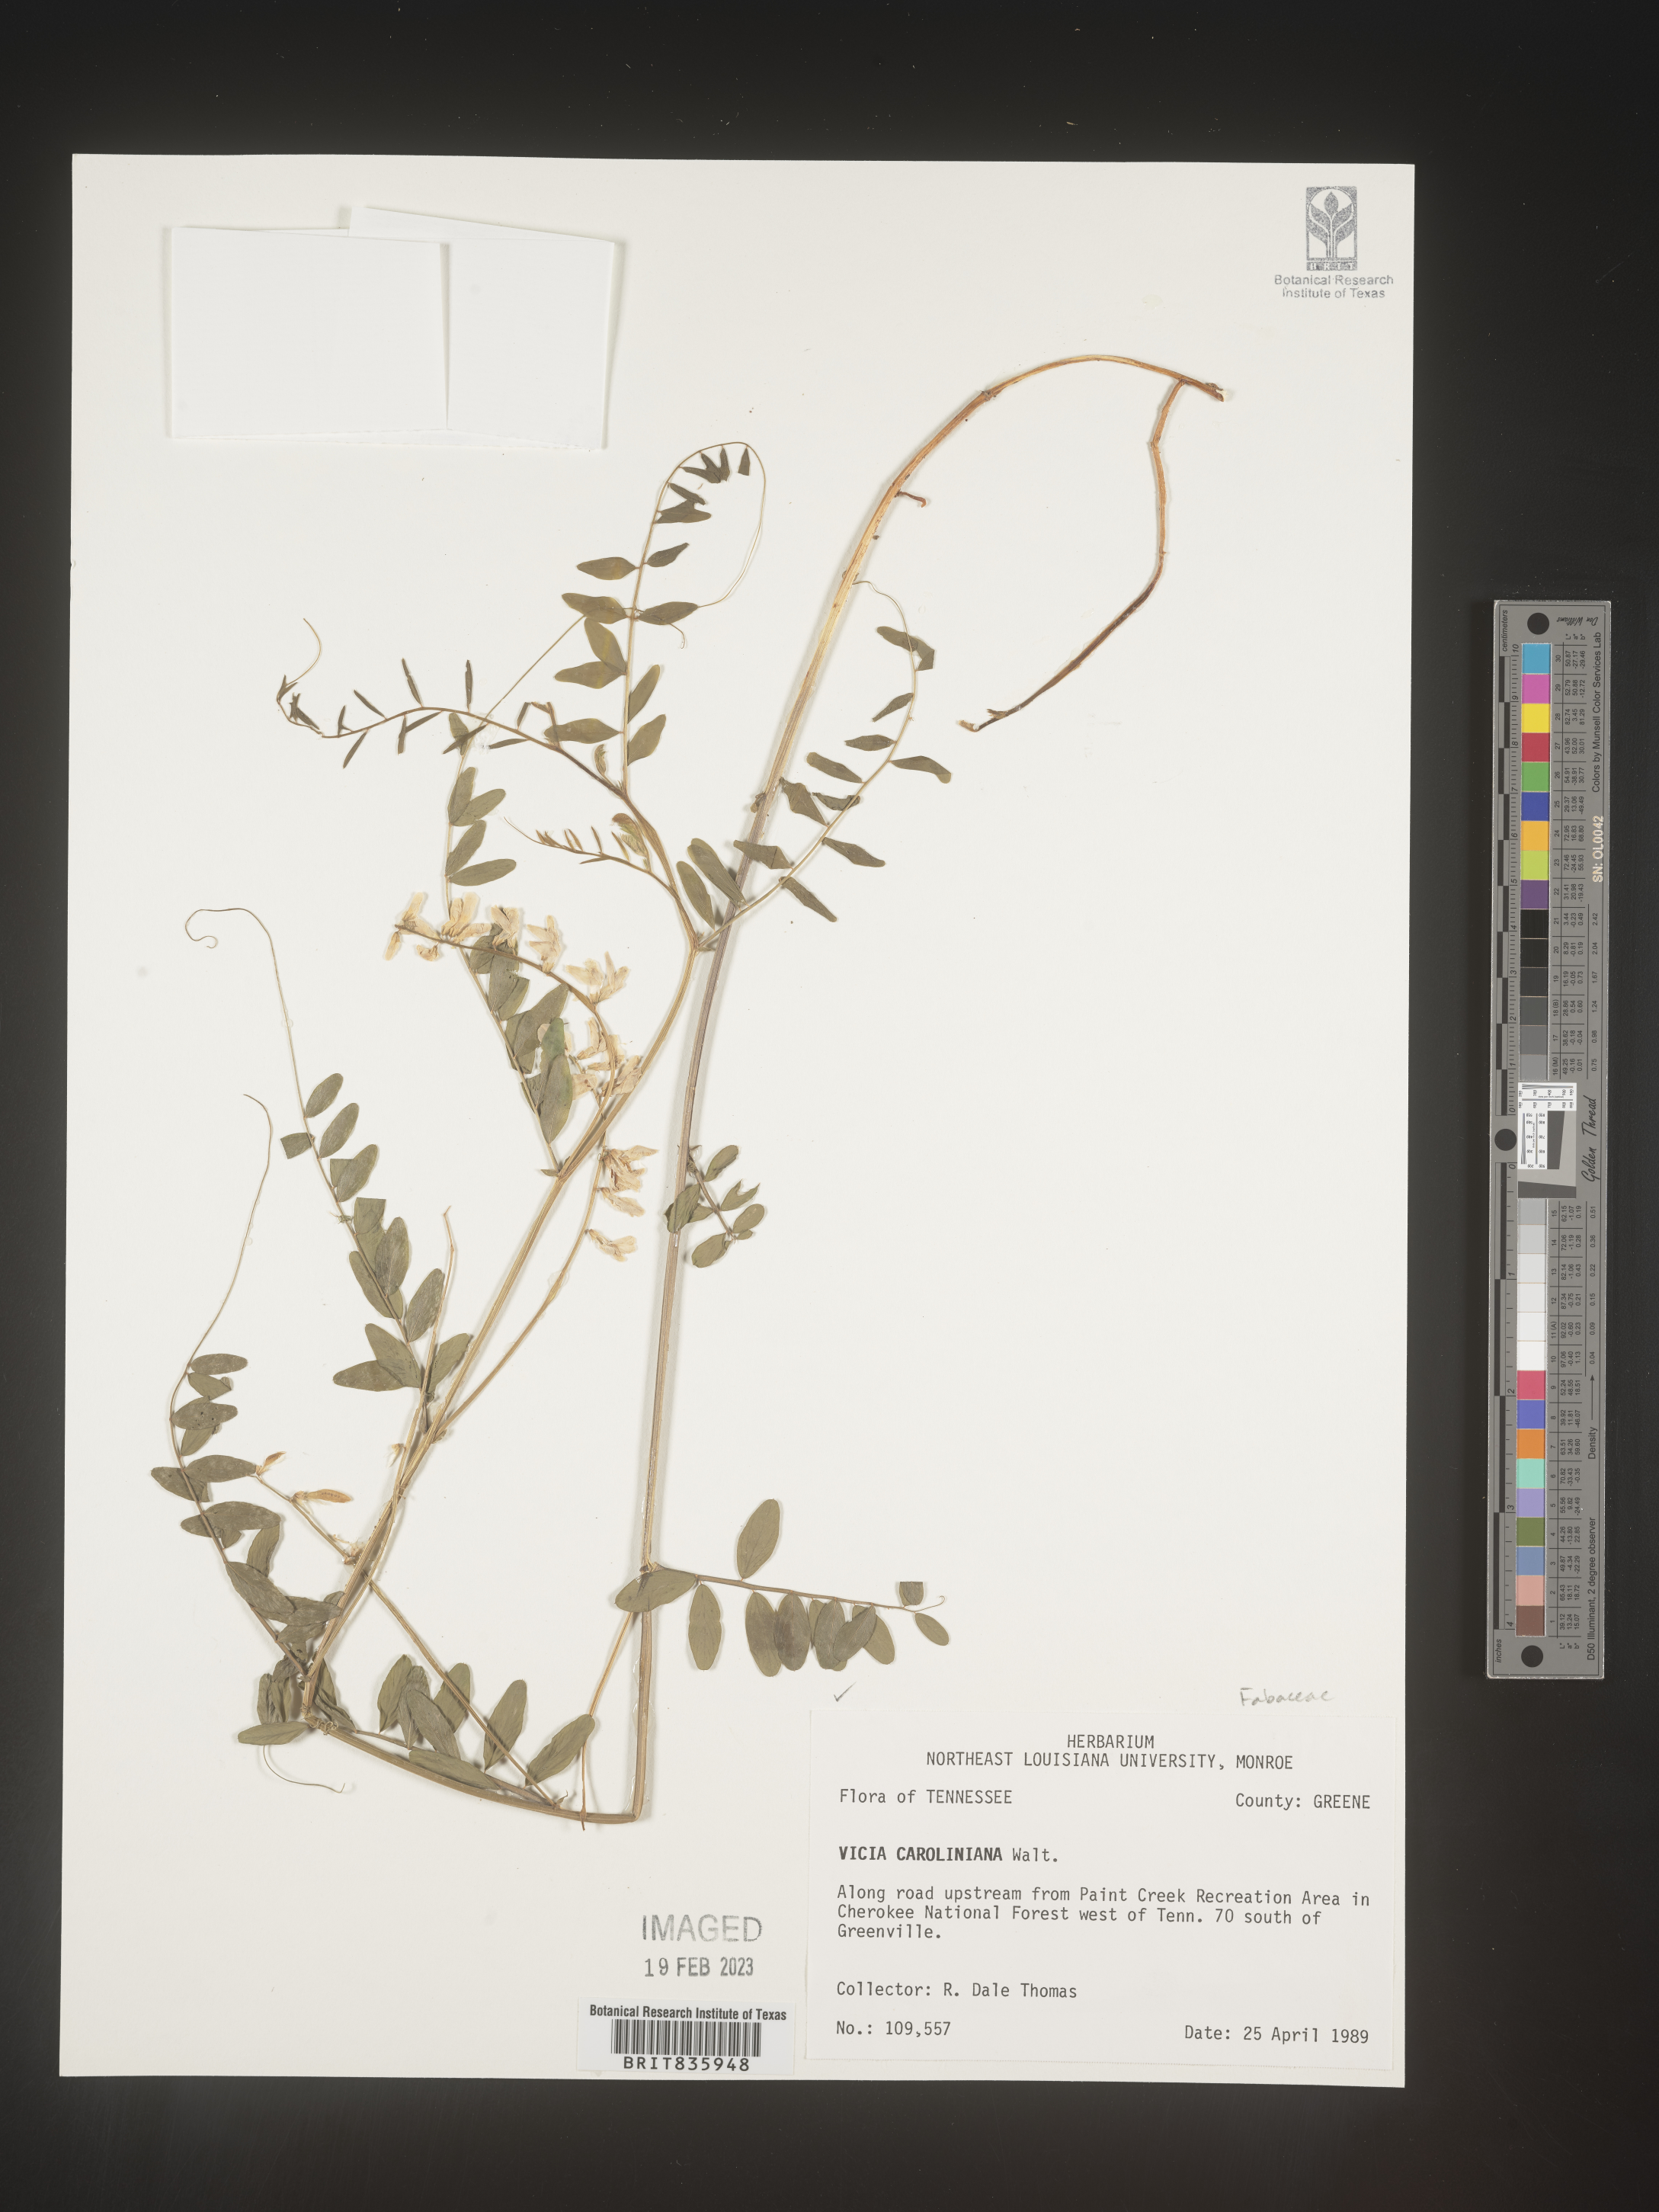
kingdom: Plantae
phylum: Tracheophyta
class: Magnoliopsida
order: Fabales
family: Fabaceae
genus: Vicia
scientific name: Vicia caroliniana
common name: Carolina vetch
